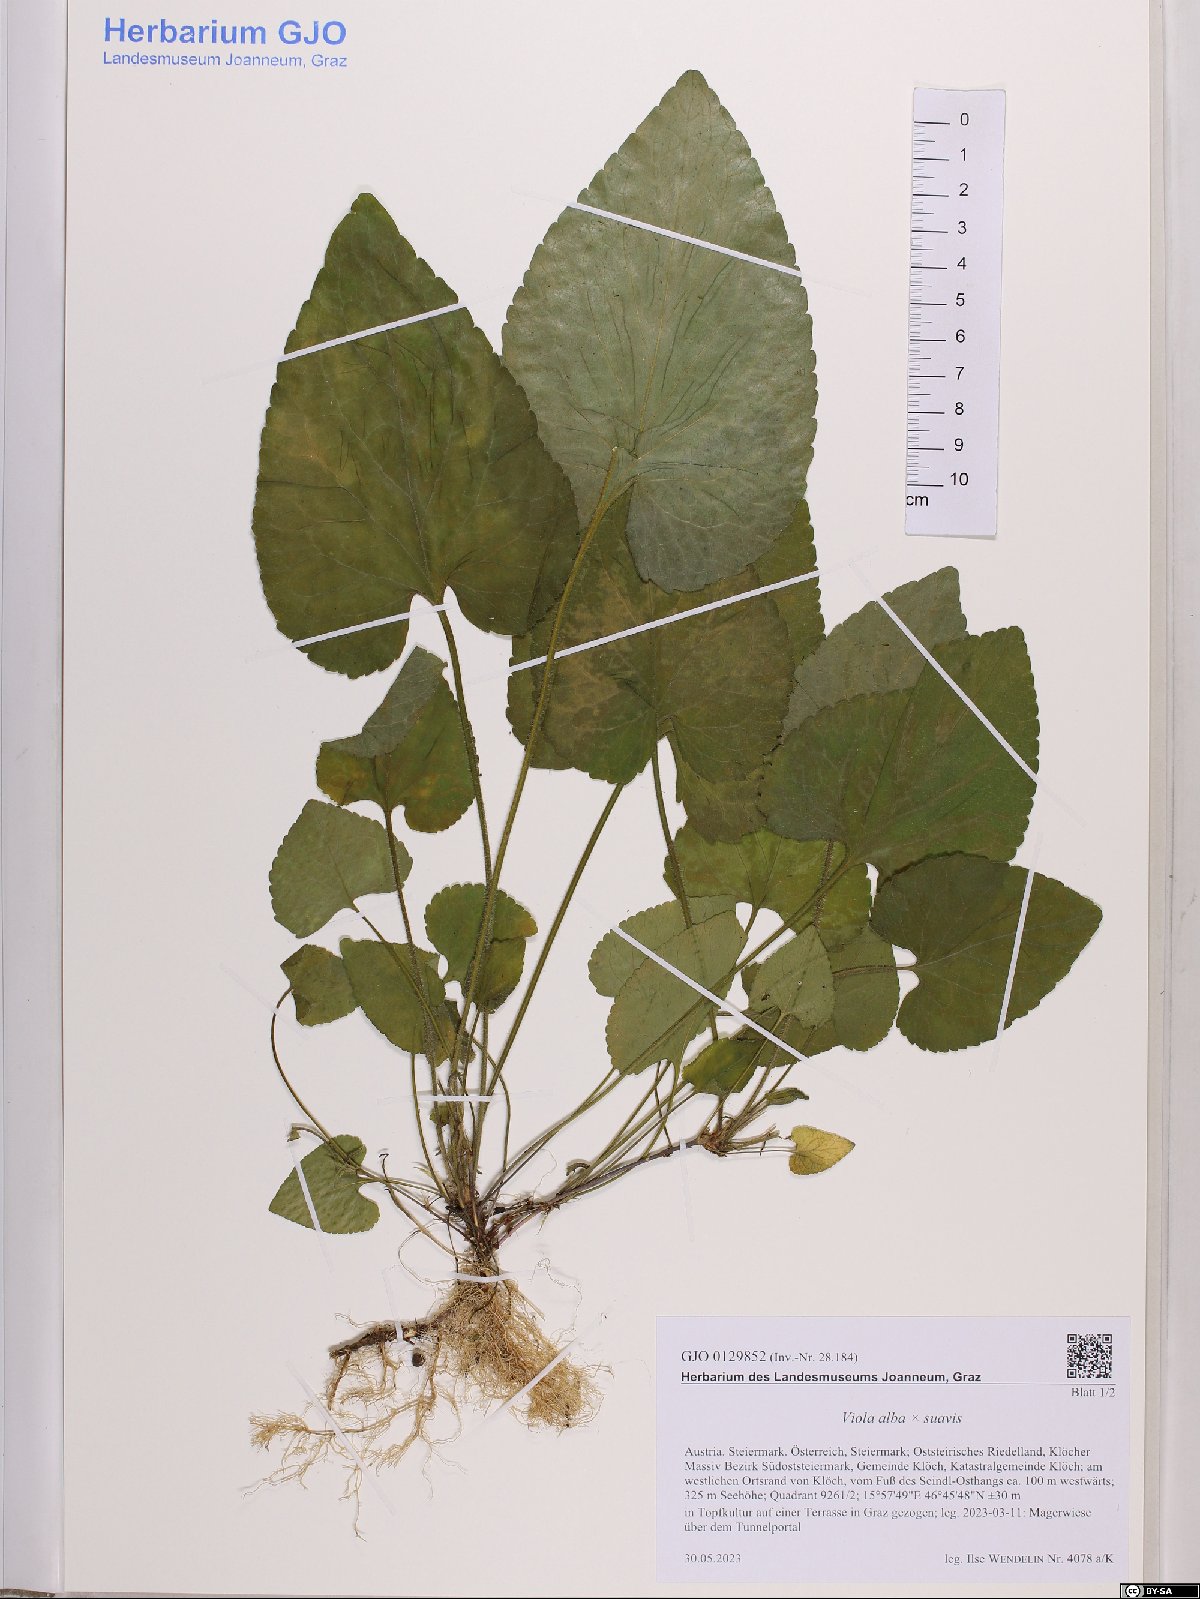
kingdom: Plantae
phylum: Tracheophyta
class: Magnoliopsida
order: Malpighiales
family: Violaceae
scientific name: Violaceae
